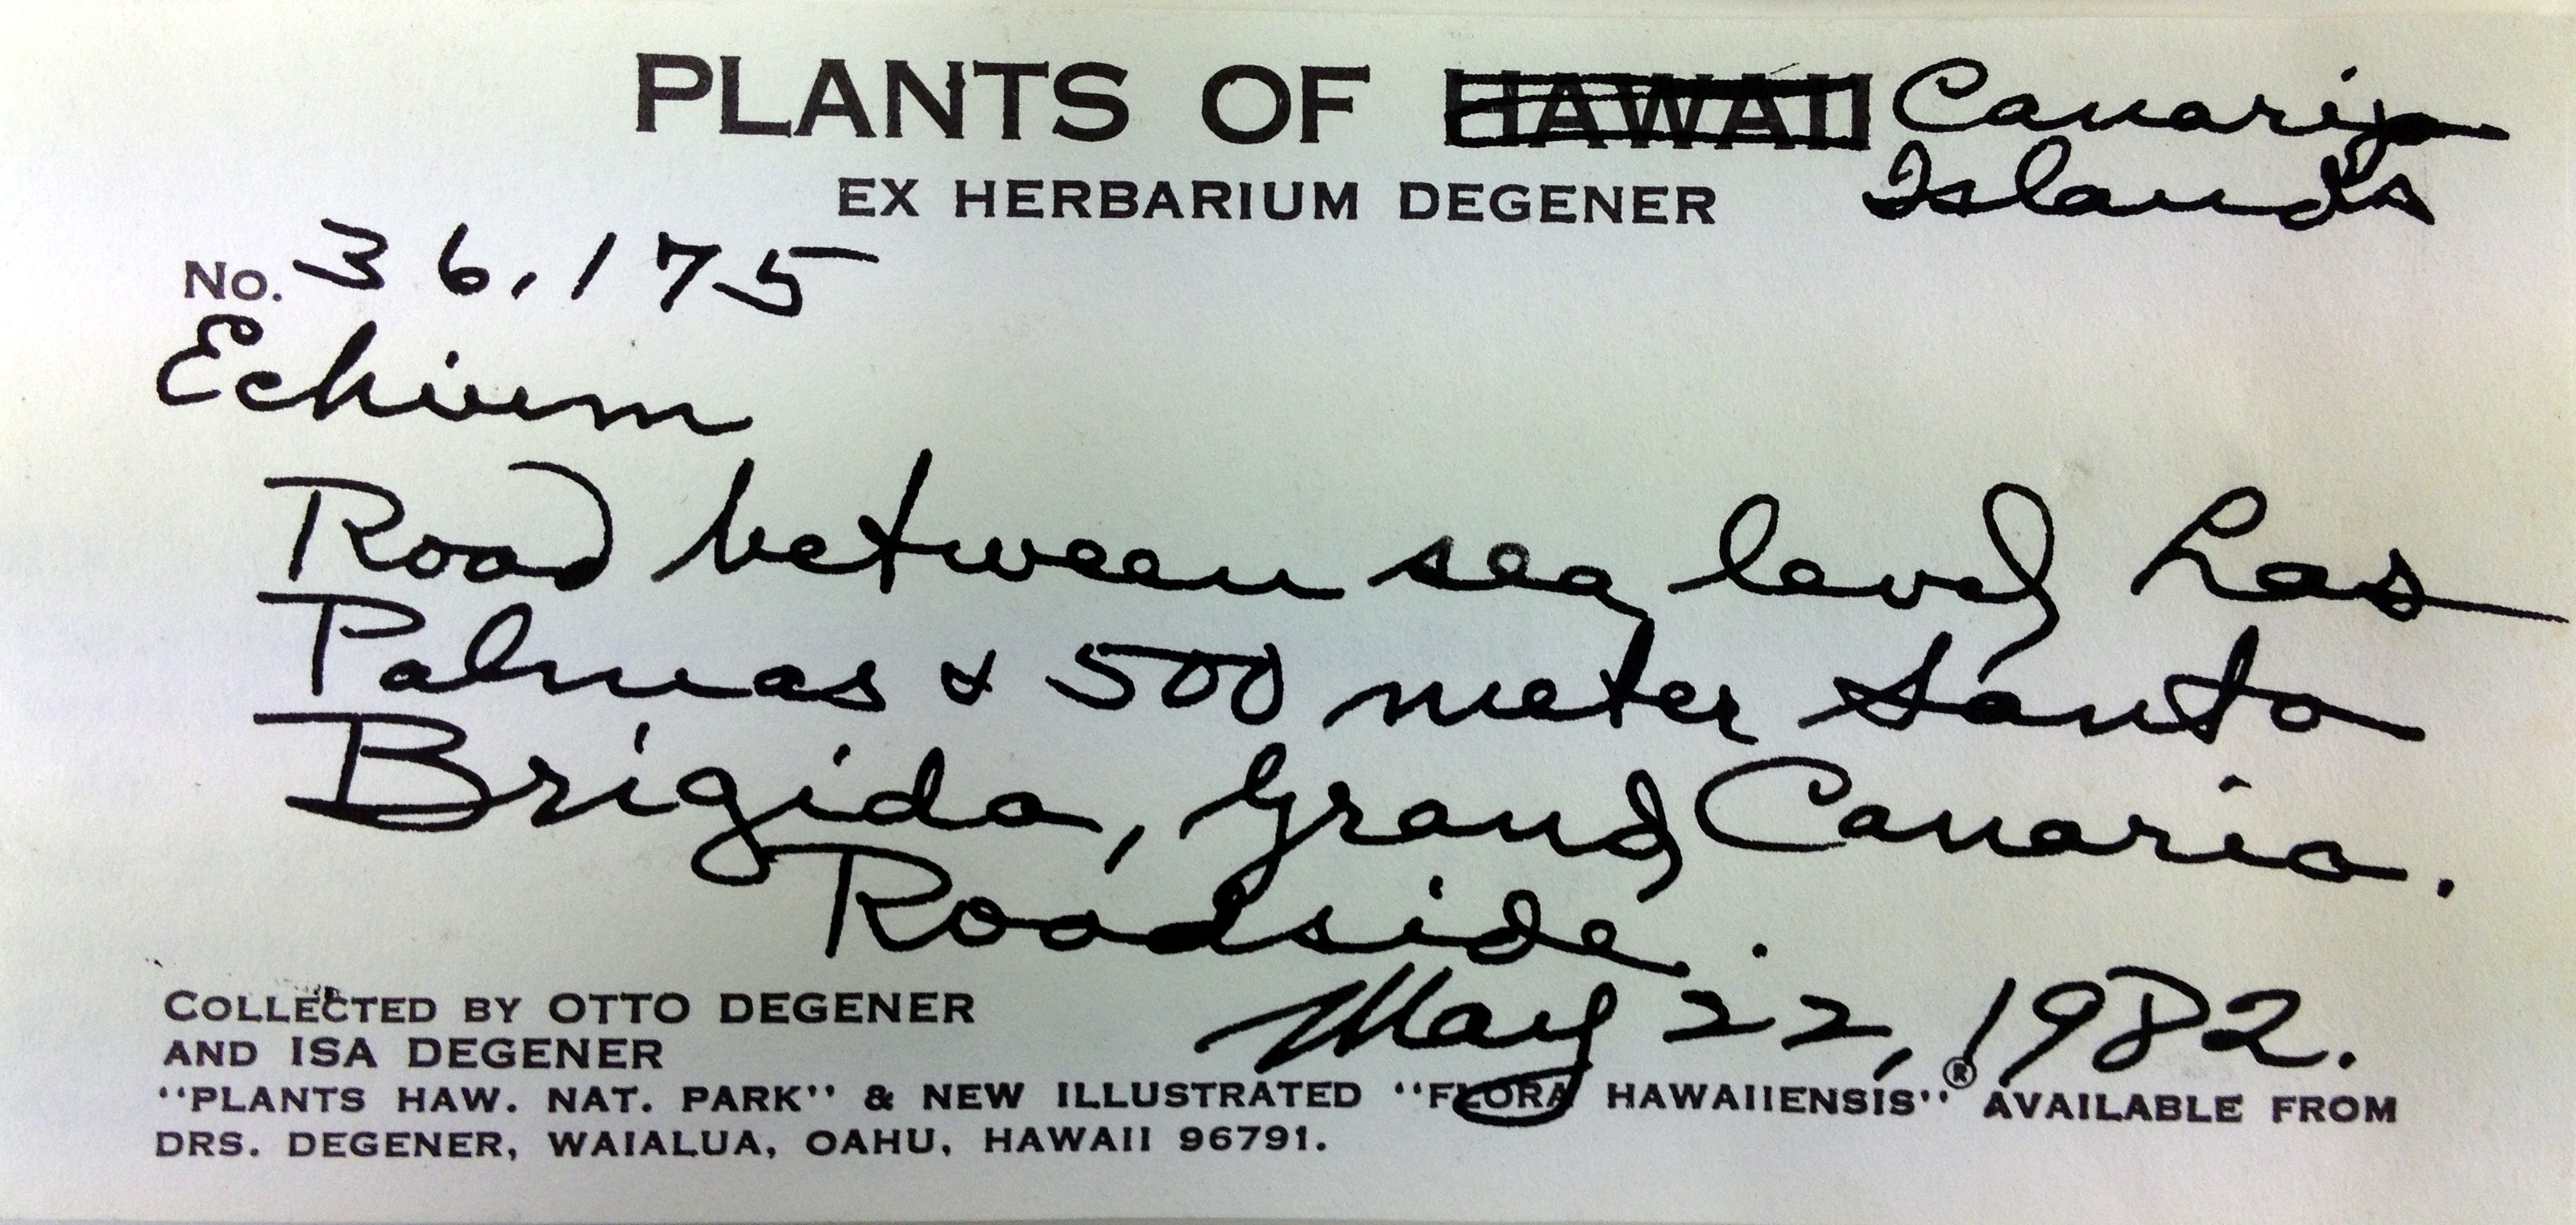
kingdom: Plantae
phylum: Tracheophyta
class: Magnoliopsida
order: Boraginales
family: Boraginaceae
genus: Echium
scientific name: Echium vulgare
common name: Common viper's bugloss
